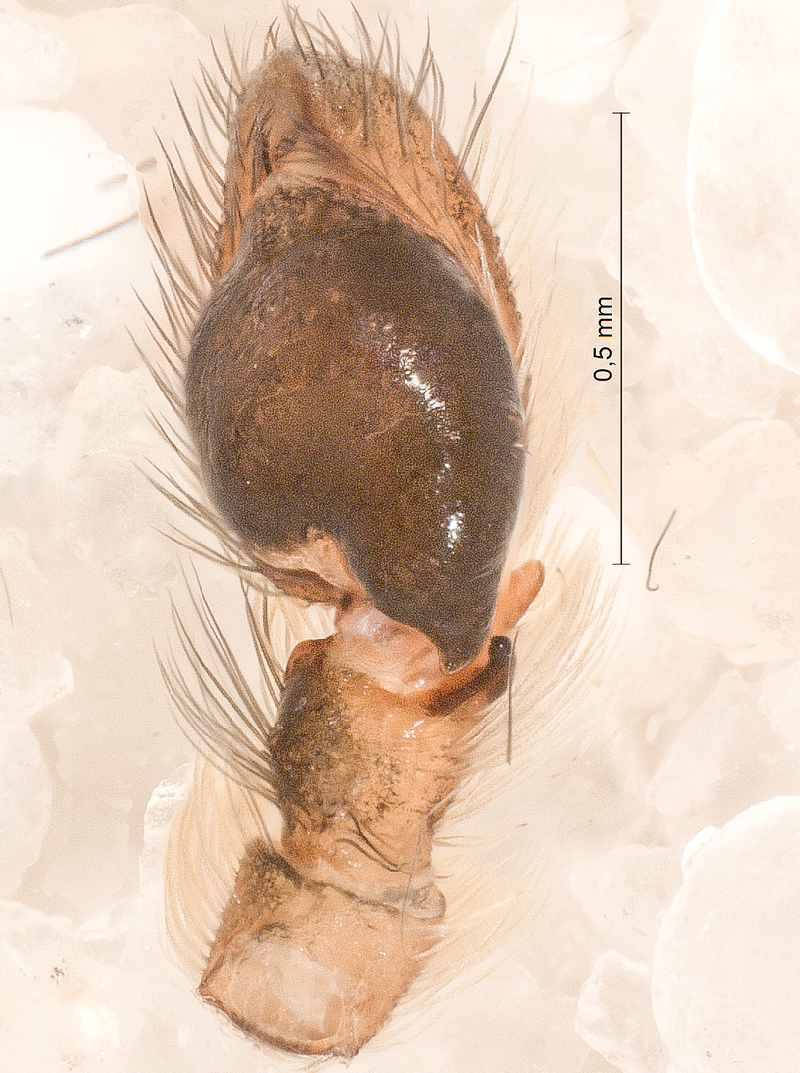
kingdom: Animalia
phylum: Arthropoda
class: Arachnida
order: Araneae
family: Salticidae
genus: Aelurillus
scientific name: Aelurillus v-insignitus
